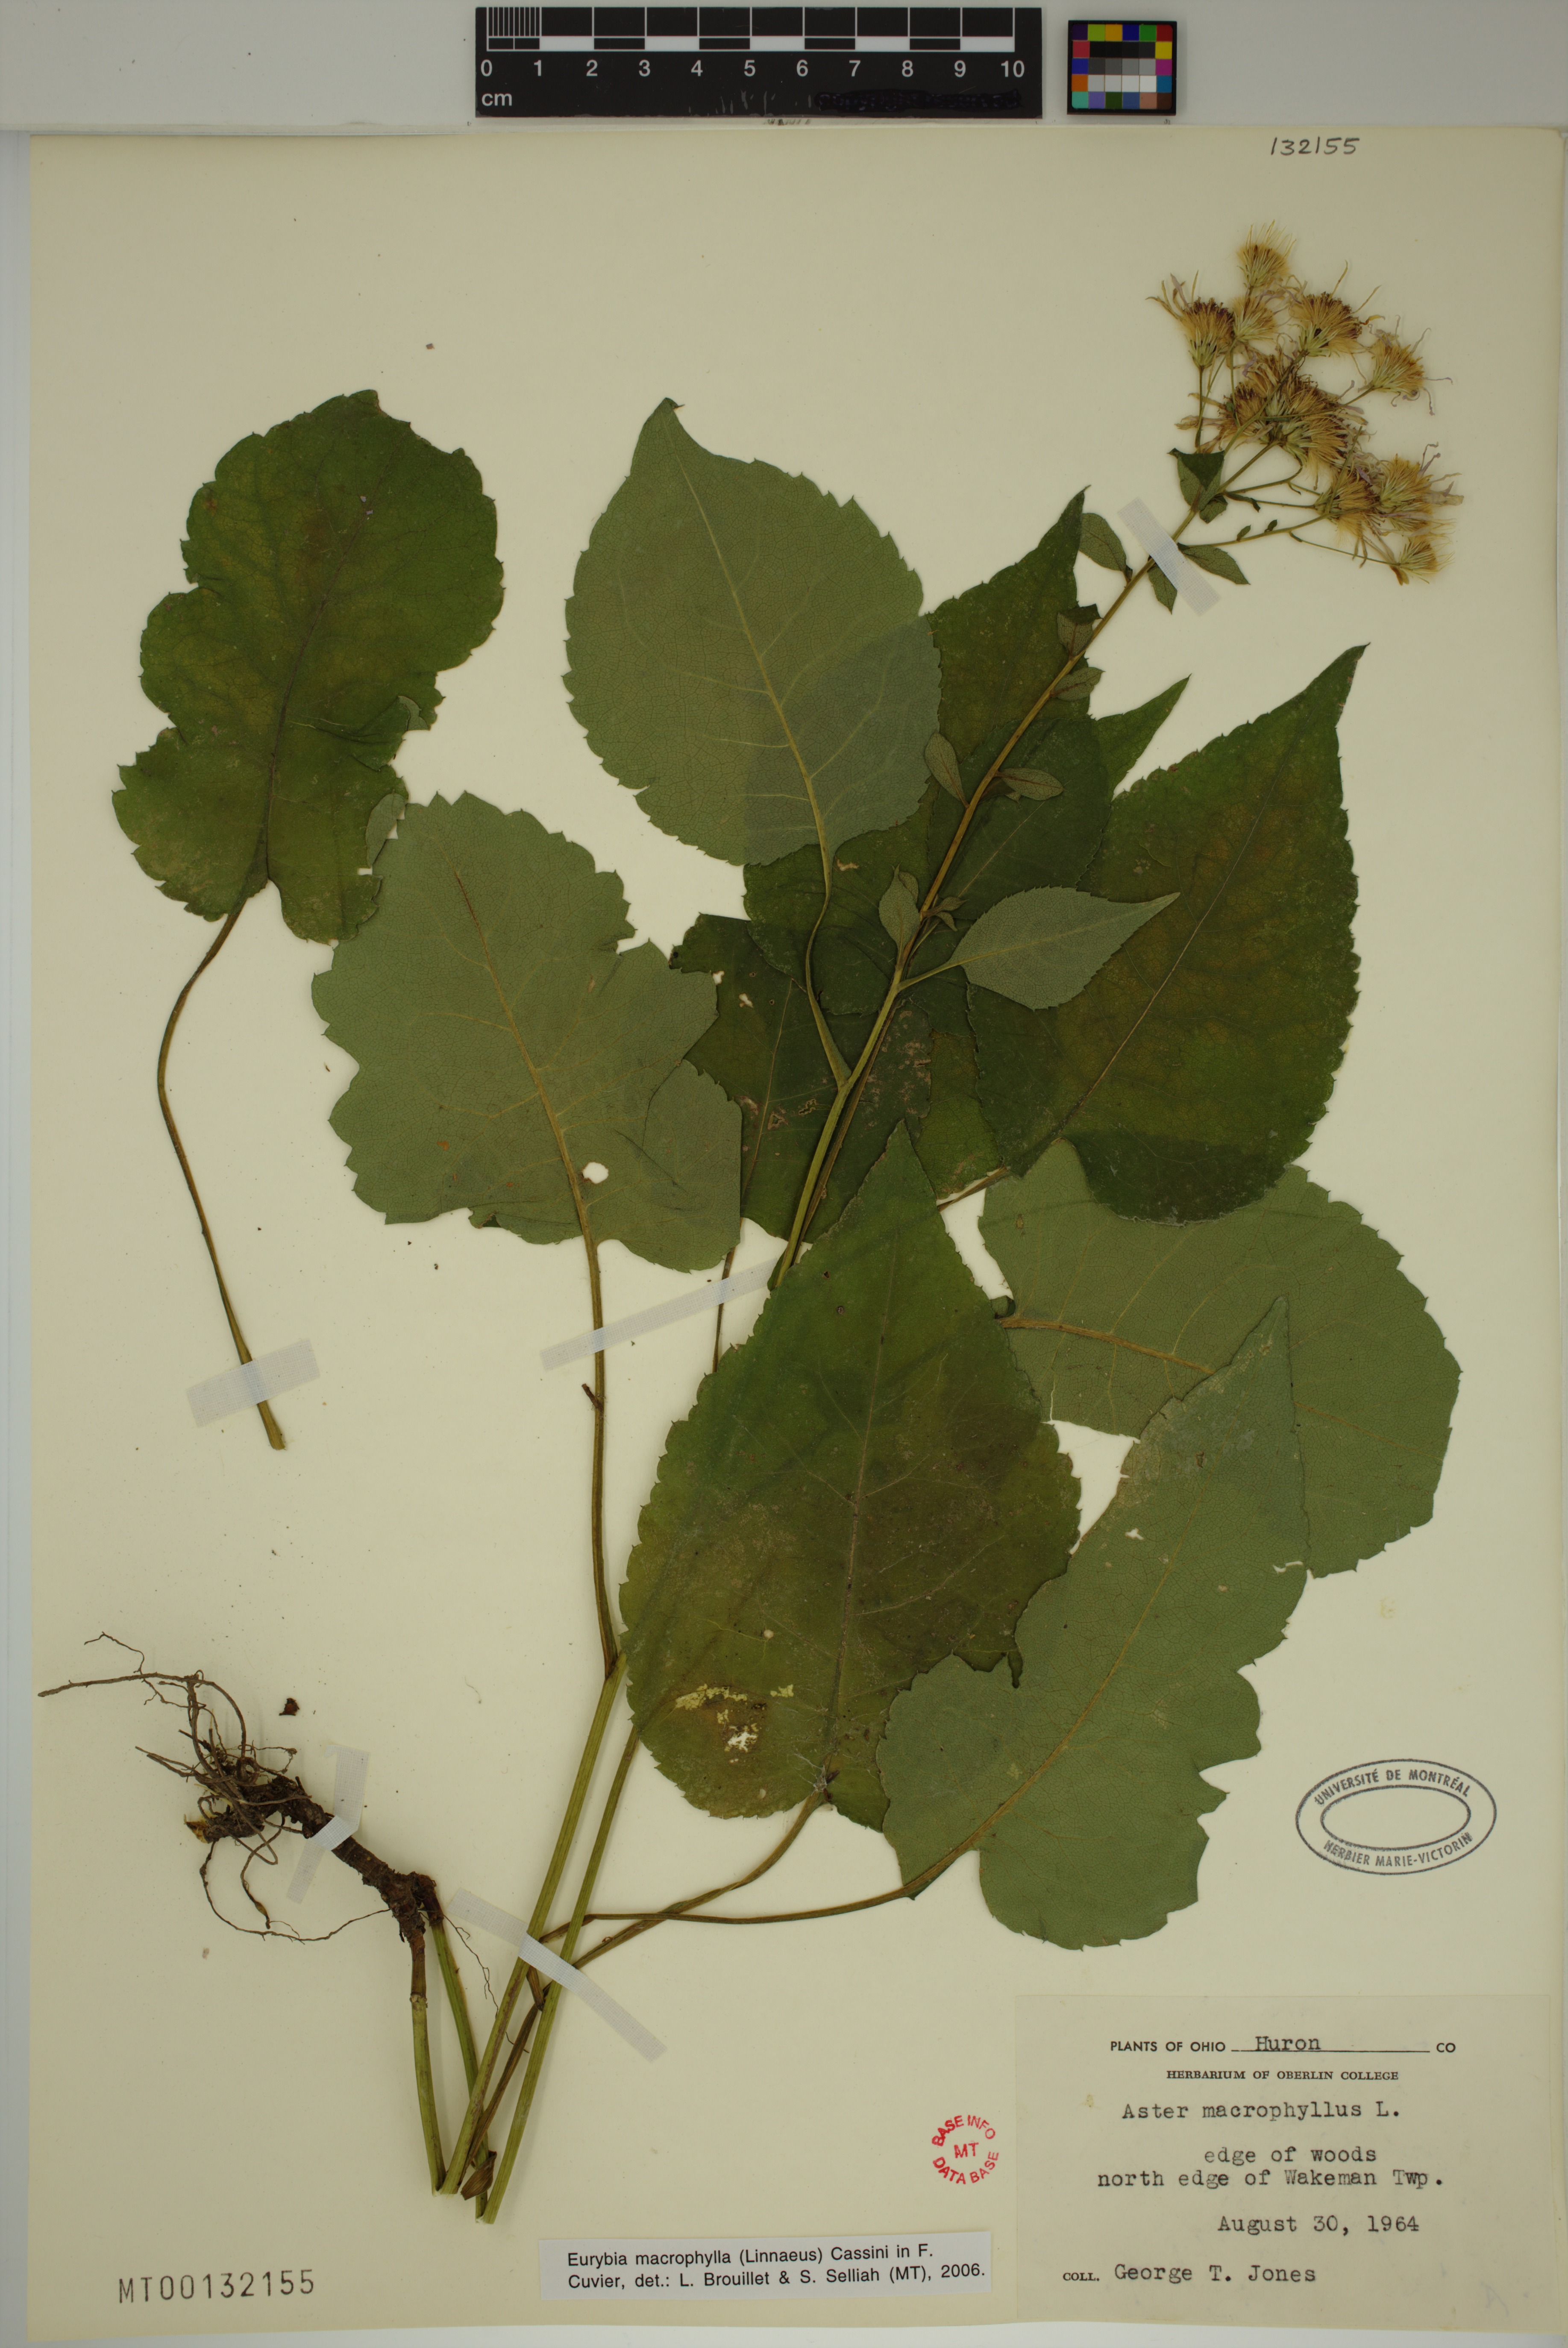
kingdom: Plantae
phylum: Tracheophyta
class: Magnoliopsida
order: Asterales
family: Asteraceae
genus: Eurybia
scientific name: Eurybia macrophylla
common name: Big-leaved aster
